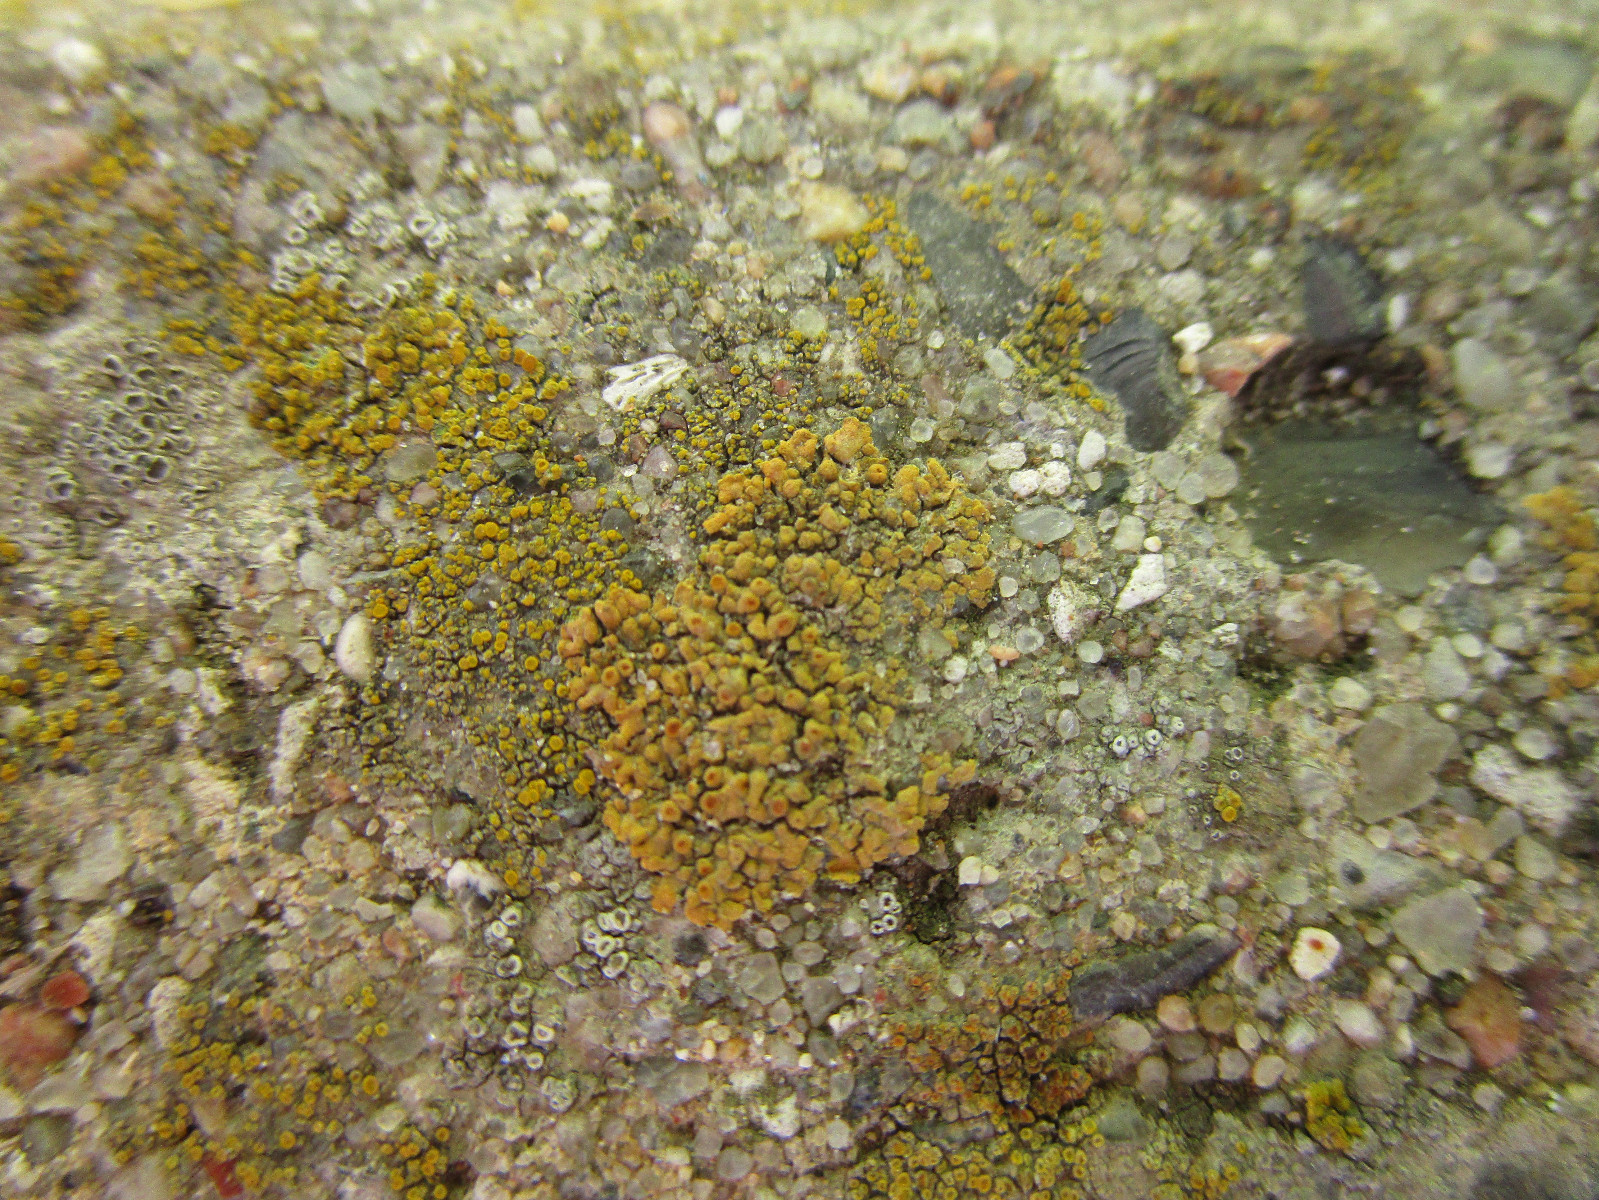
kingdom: Fungi
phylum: Ascomycota
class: Lecanoromycetes
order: Teloschistales
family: Teloschistaceae
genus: Calogaya
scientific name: Calogaya arnoldii
